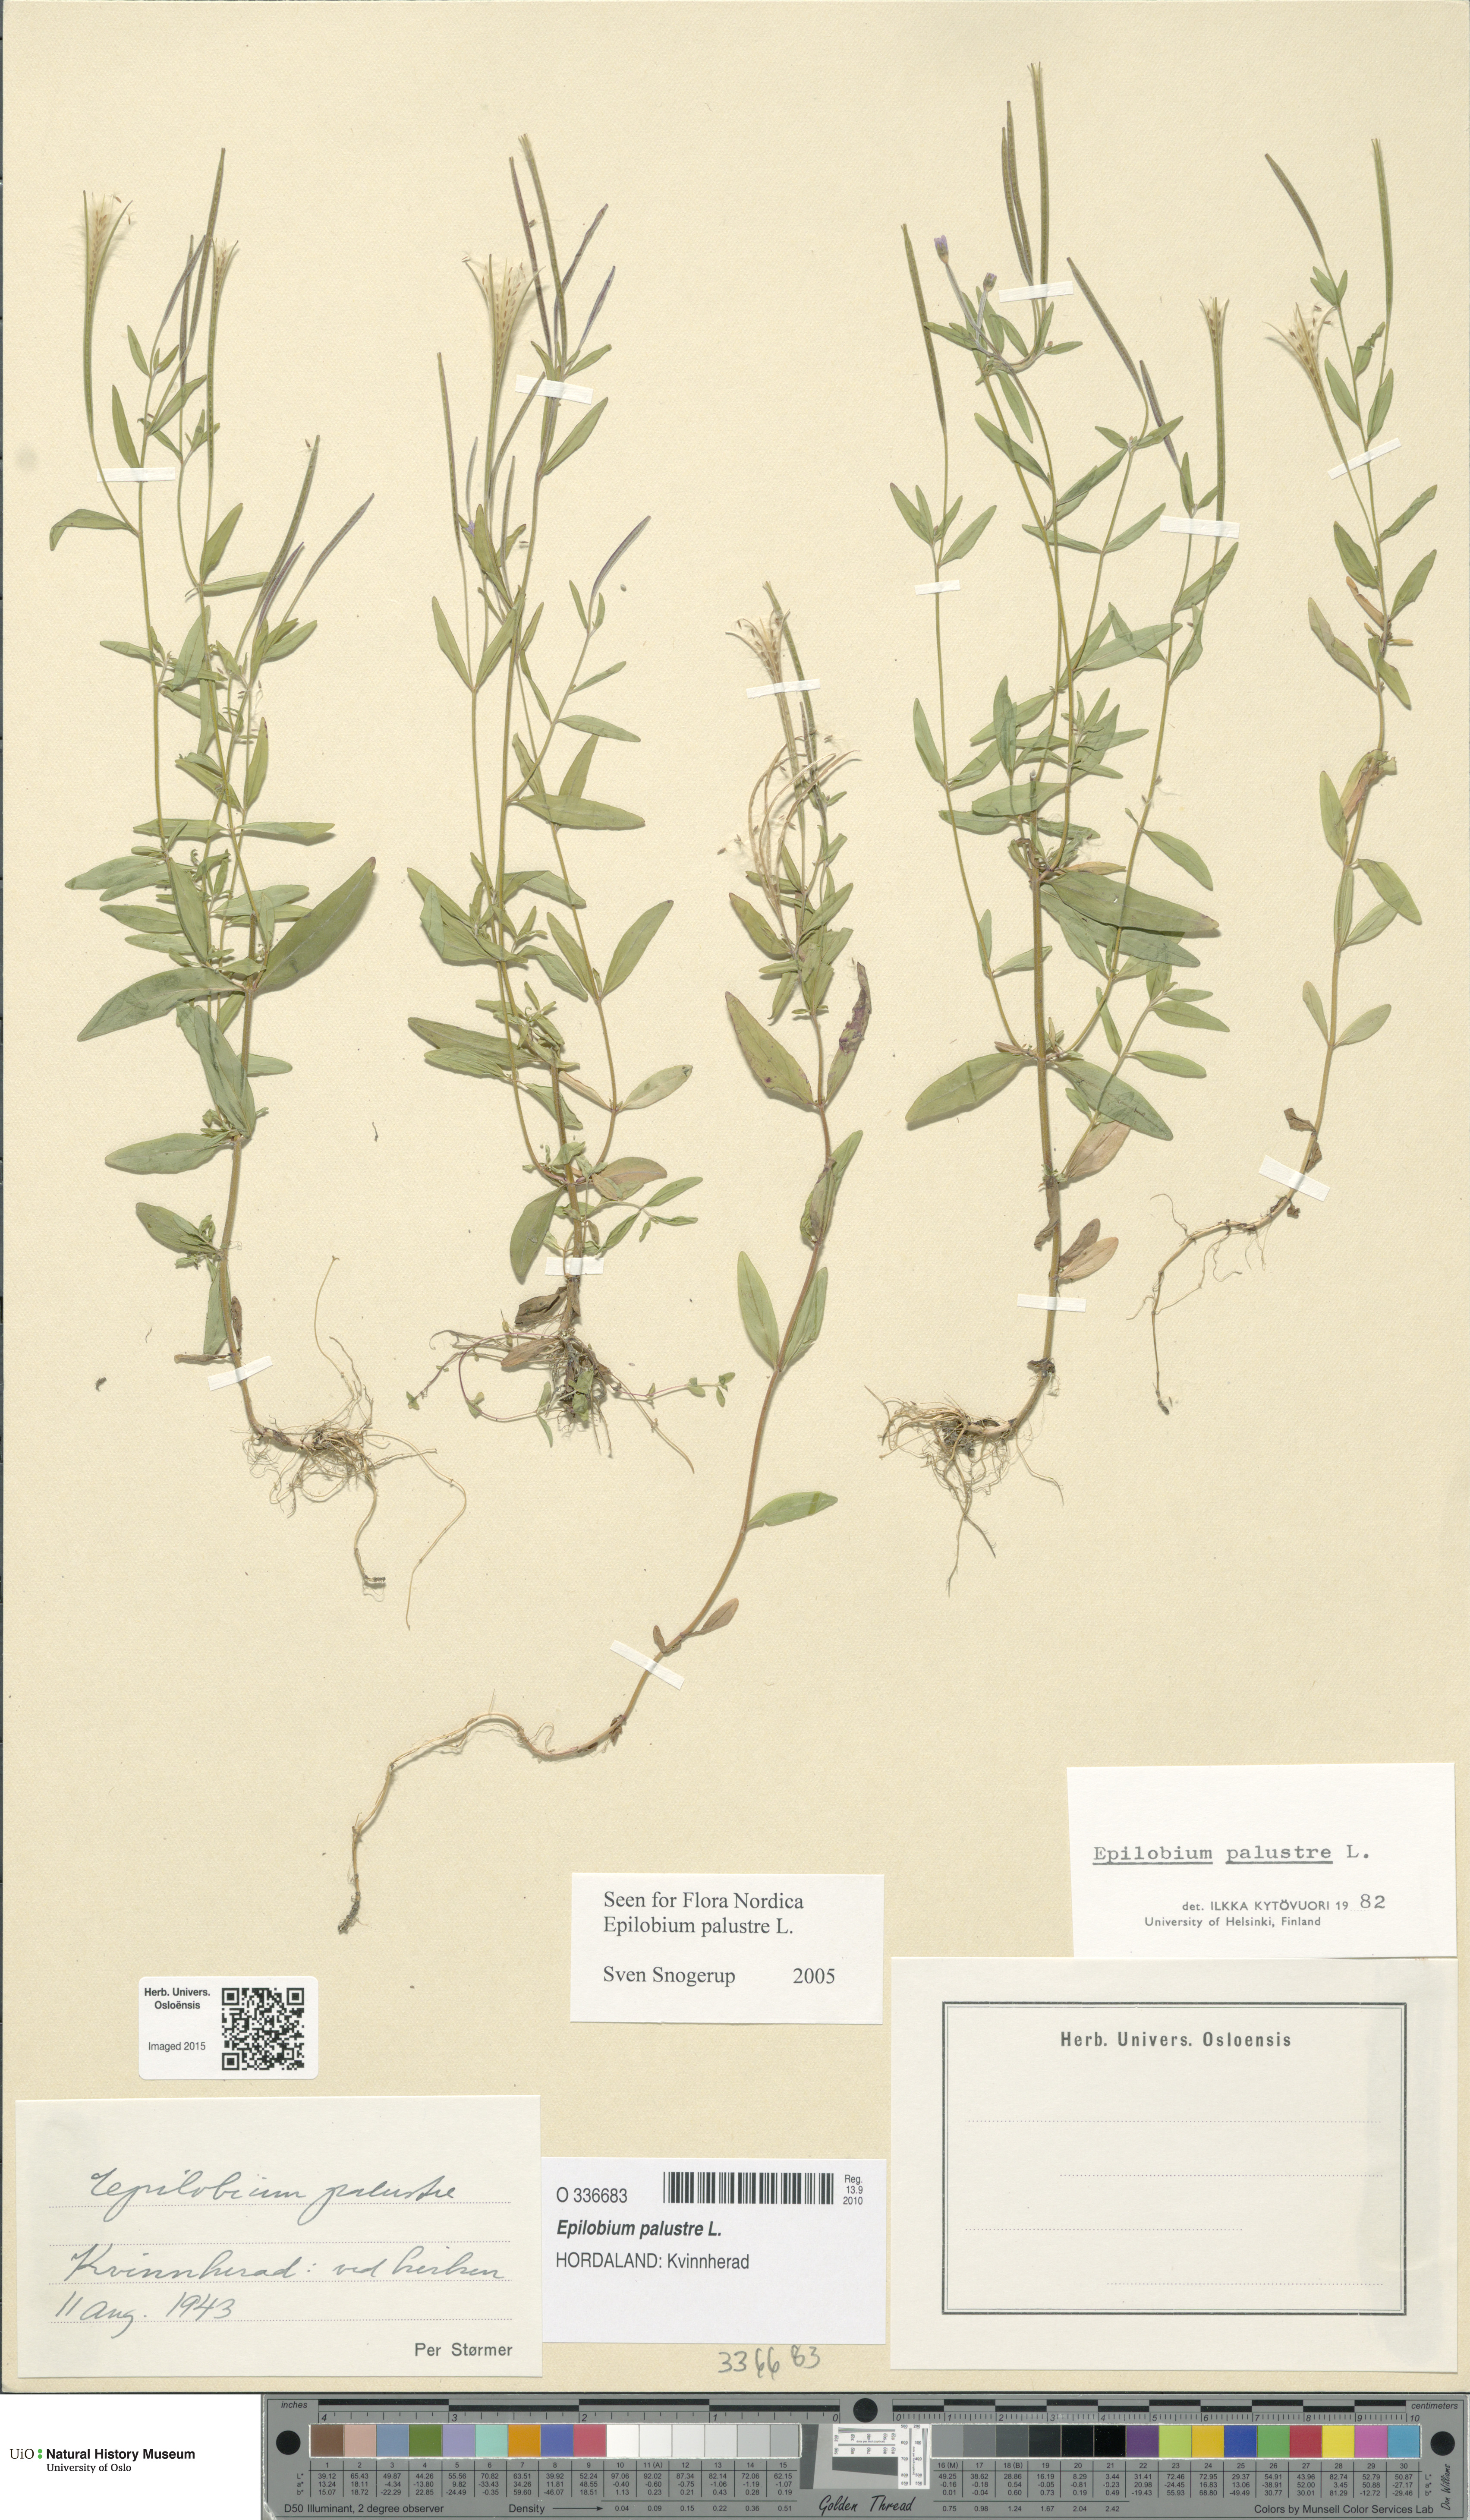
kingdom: Plantae
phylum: Tracheophyta
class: Magnoliopsida
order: Myrtales
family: Onagraceae
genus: Epilobium
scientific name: Epilobium palustre
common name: Marsh willowherb
